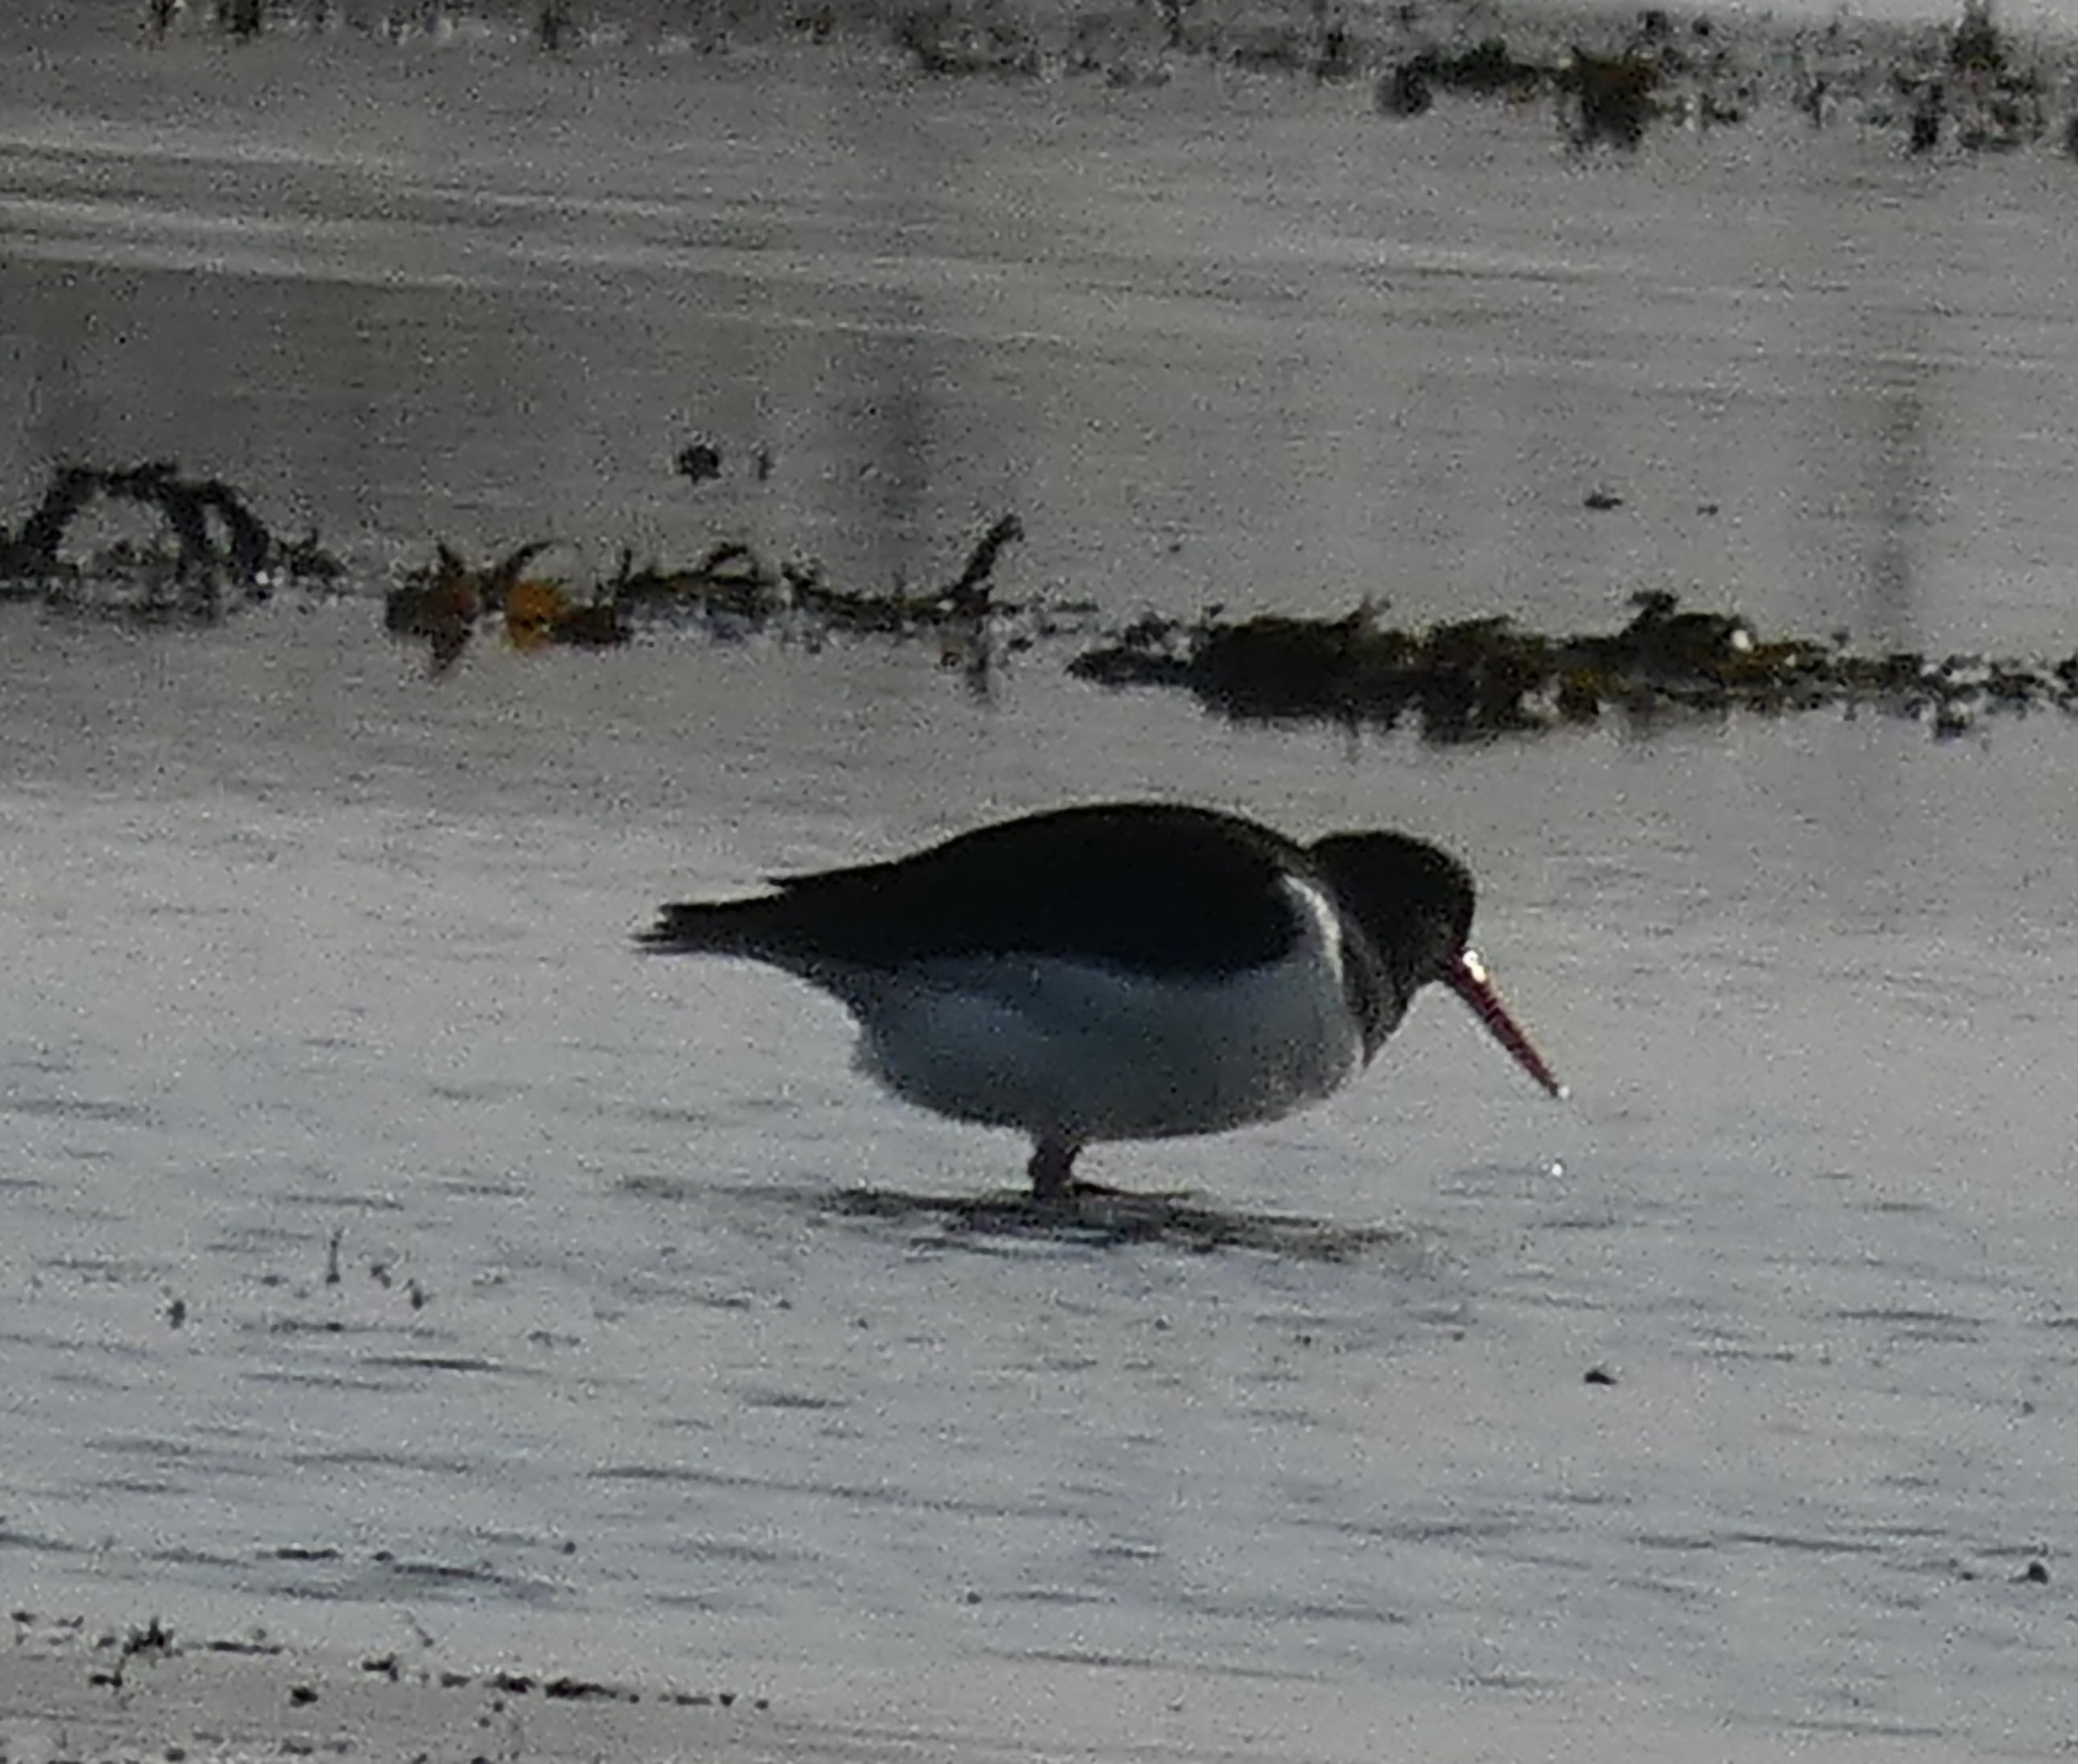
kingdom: Animalia
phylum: Chordata
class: Aves
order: Charadriiformes
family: Haematopodidae
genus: Haematopus
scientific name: Haematopus ostralegus
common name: Strandskade
